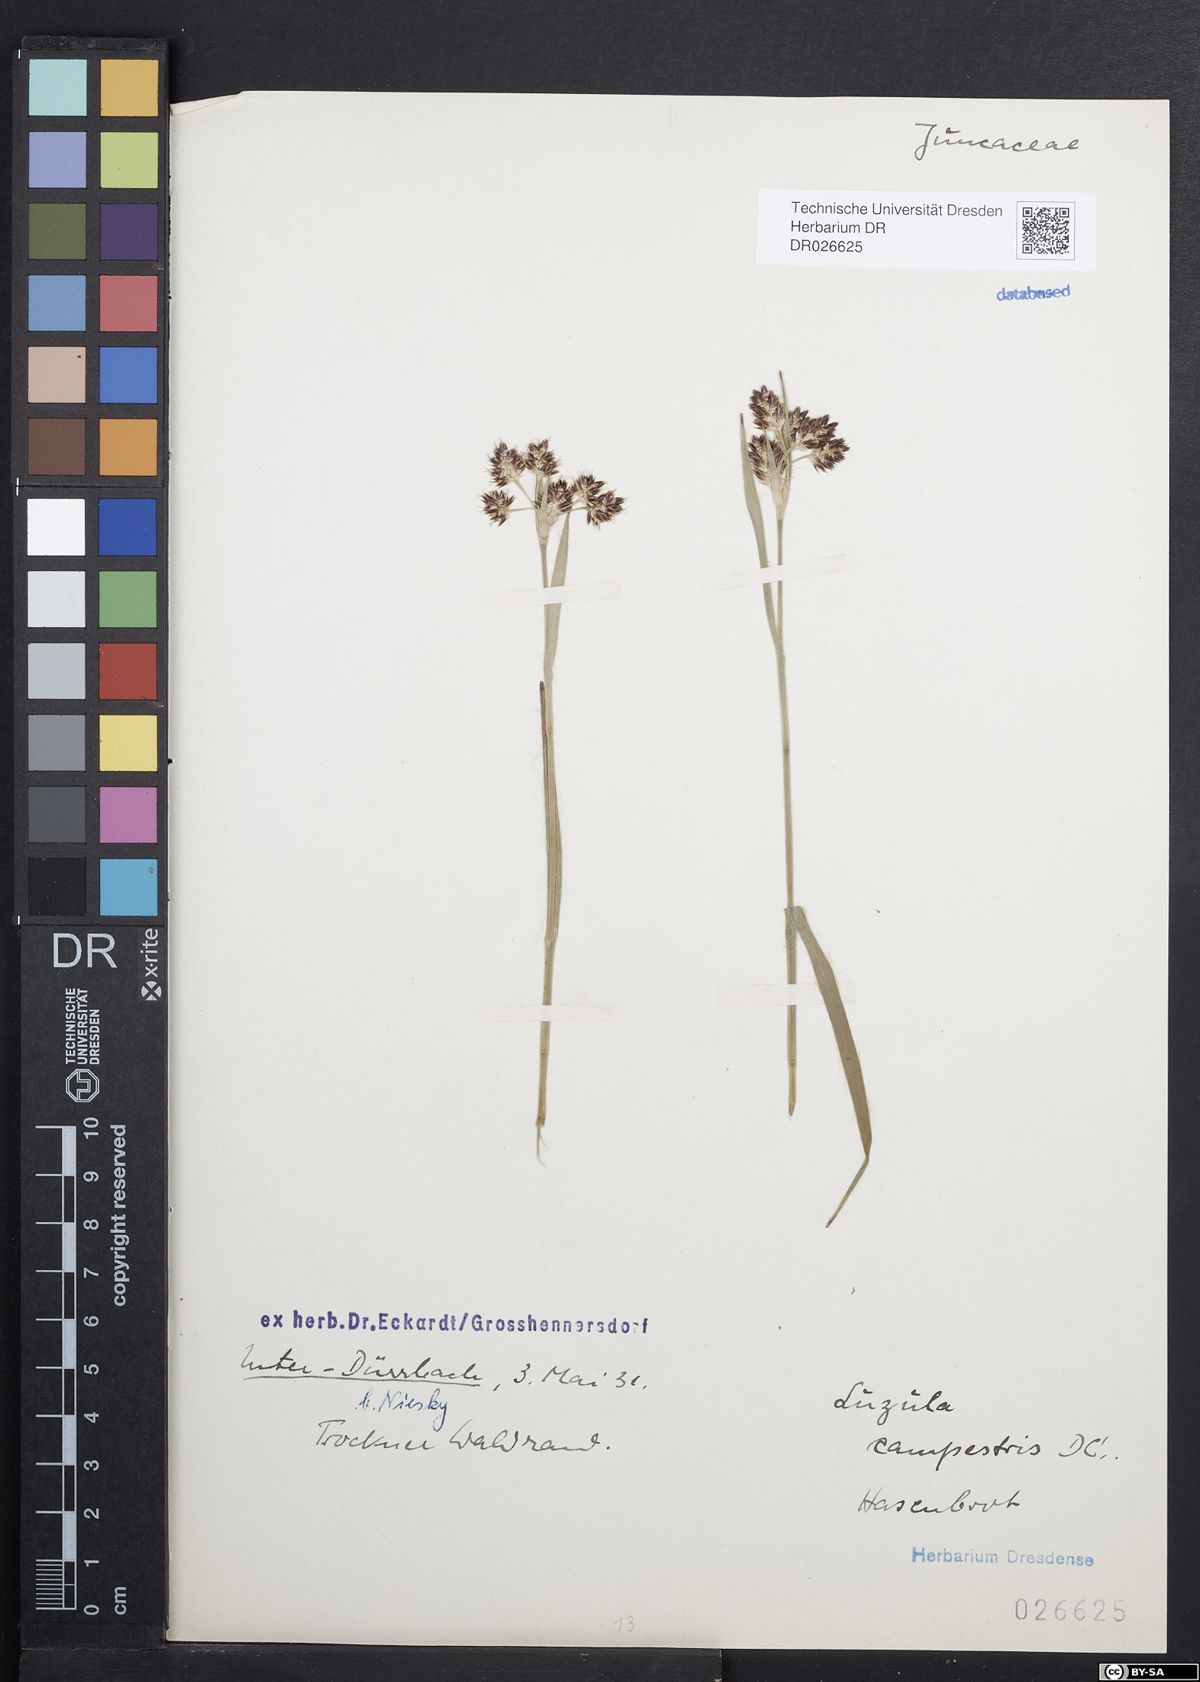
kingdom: Plantae
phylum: Tracheophyta
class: Liliopsida
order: Poales
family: Juncaceae
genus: Luzula
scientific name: Luzula campestris
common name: Field wood-rush
